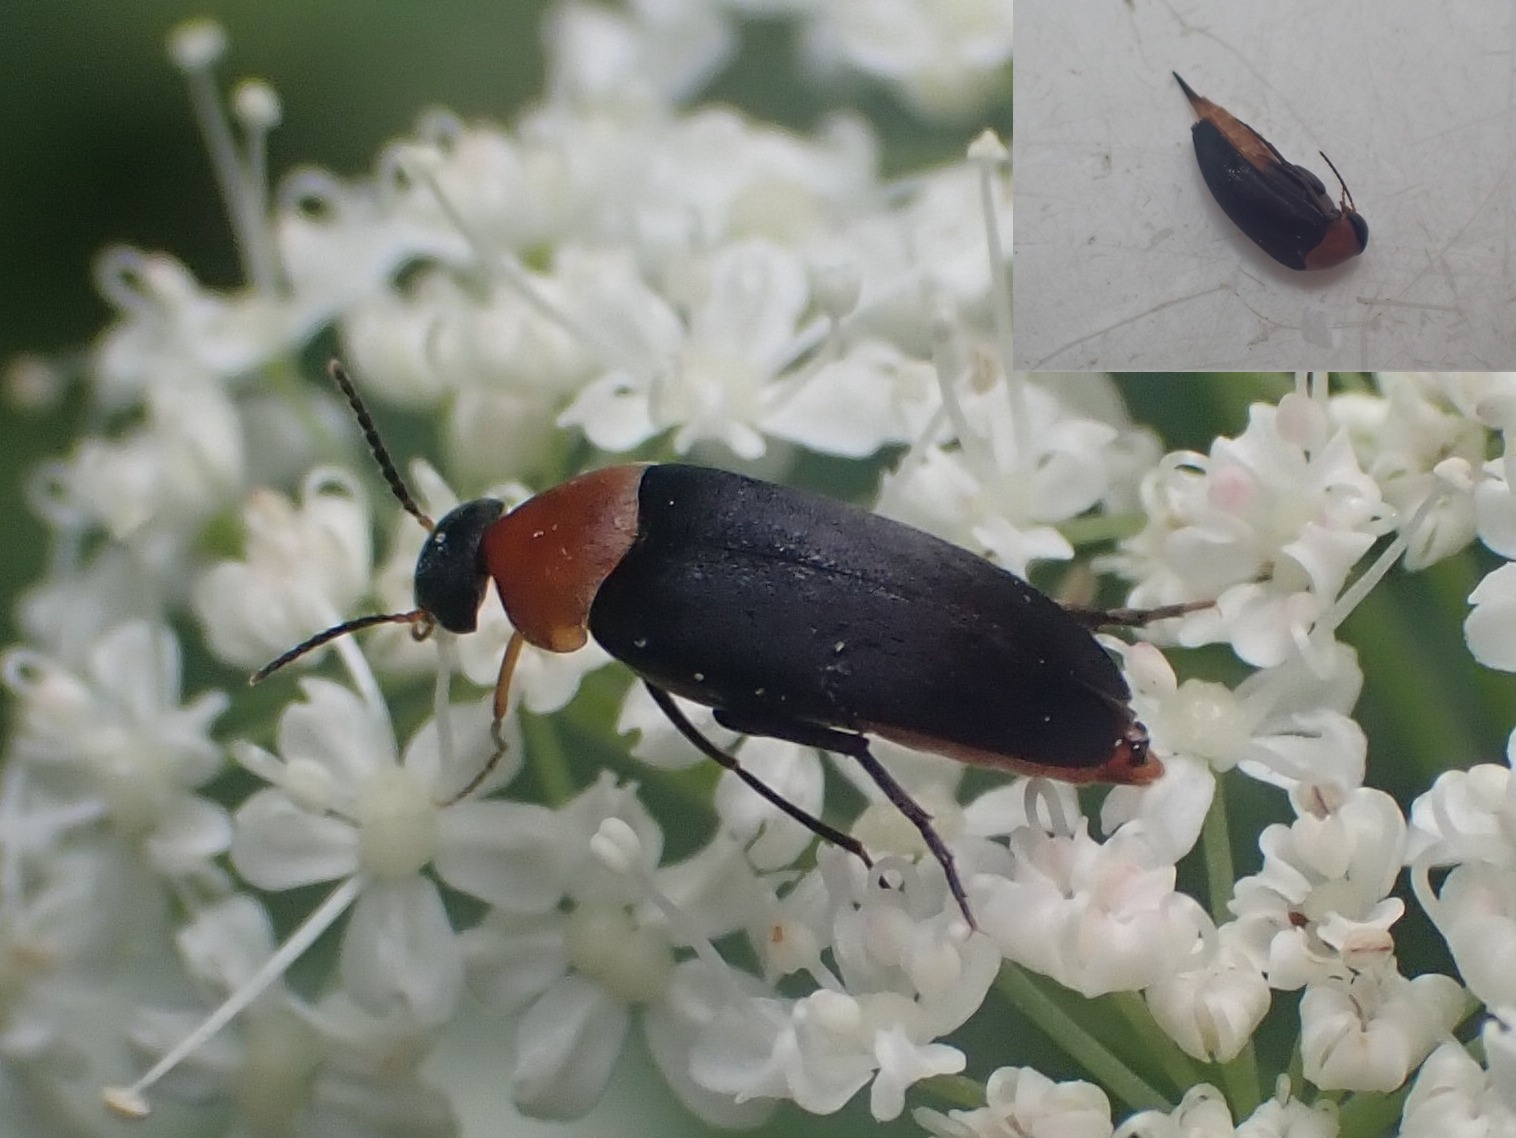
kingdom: Animalia
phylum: Arthropoda
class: Insecta
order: Coleoptera
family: Mordellidae
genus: Mordellochroa
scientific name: Mordellochroa abdominalis
